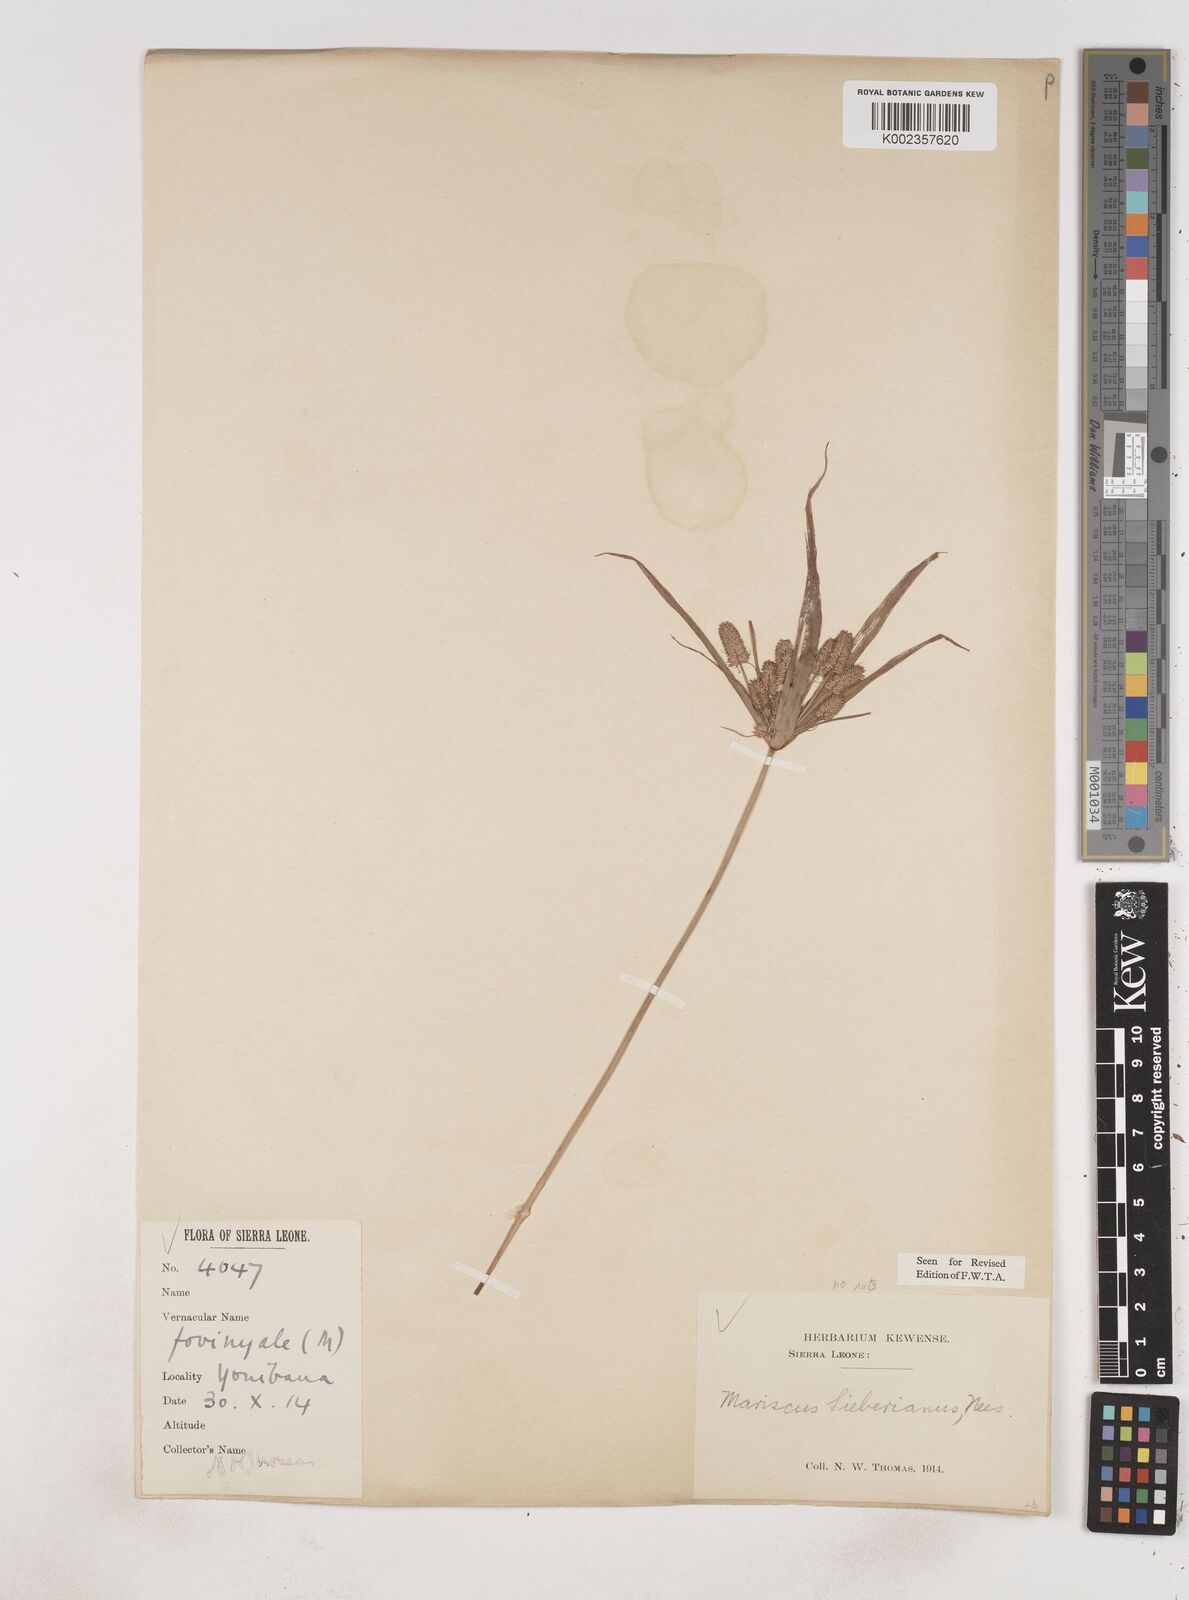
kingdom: Plantae
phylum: Tracheophyta
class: Liliopsida
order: Poales
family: Cyperaceae
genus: Cyperus
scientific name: Cyperus cyperoides
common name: Pacific island flat sedge
